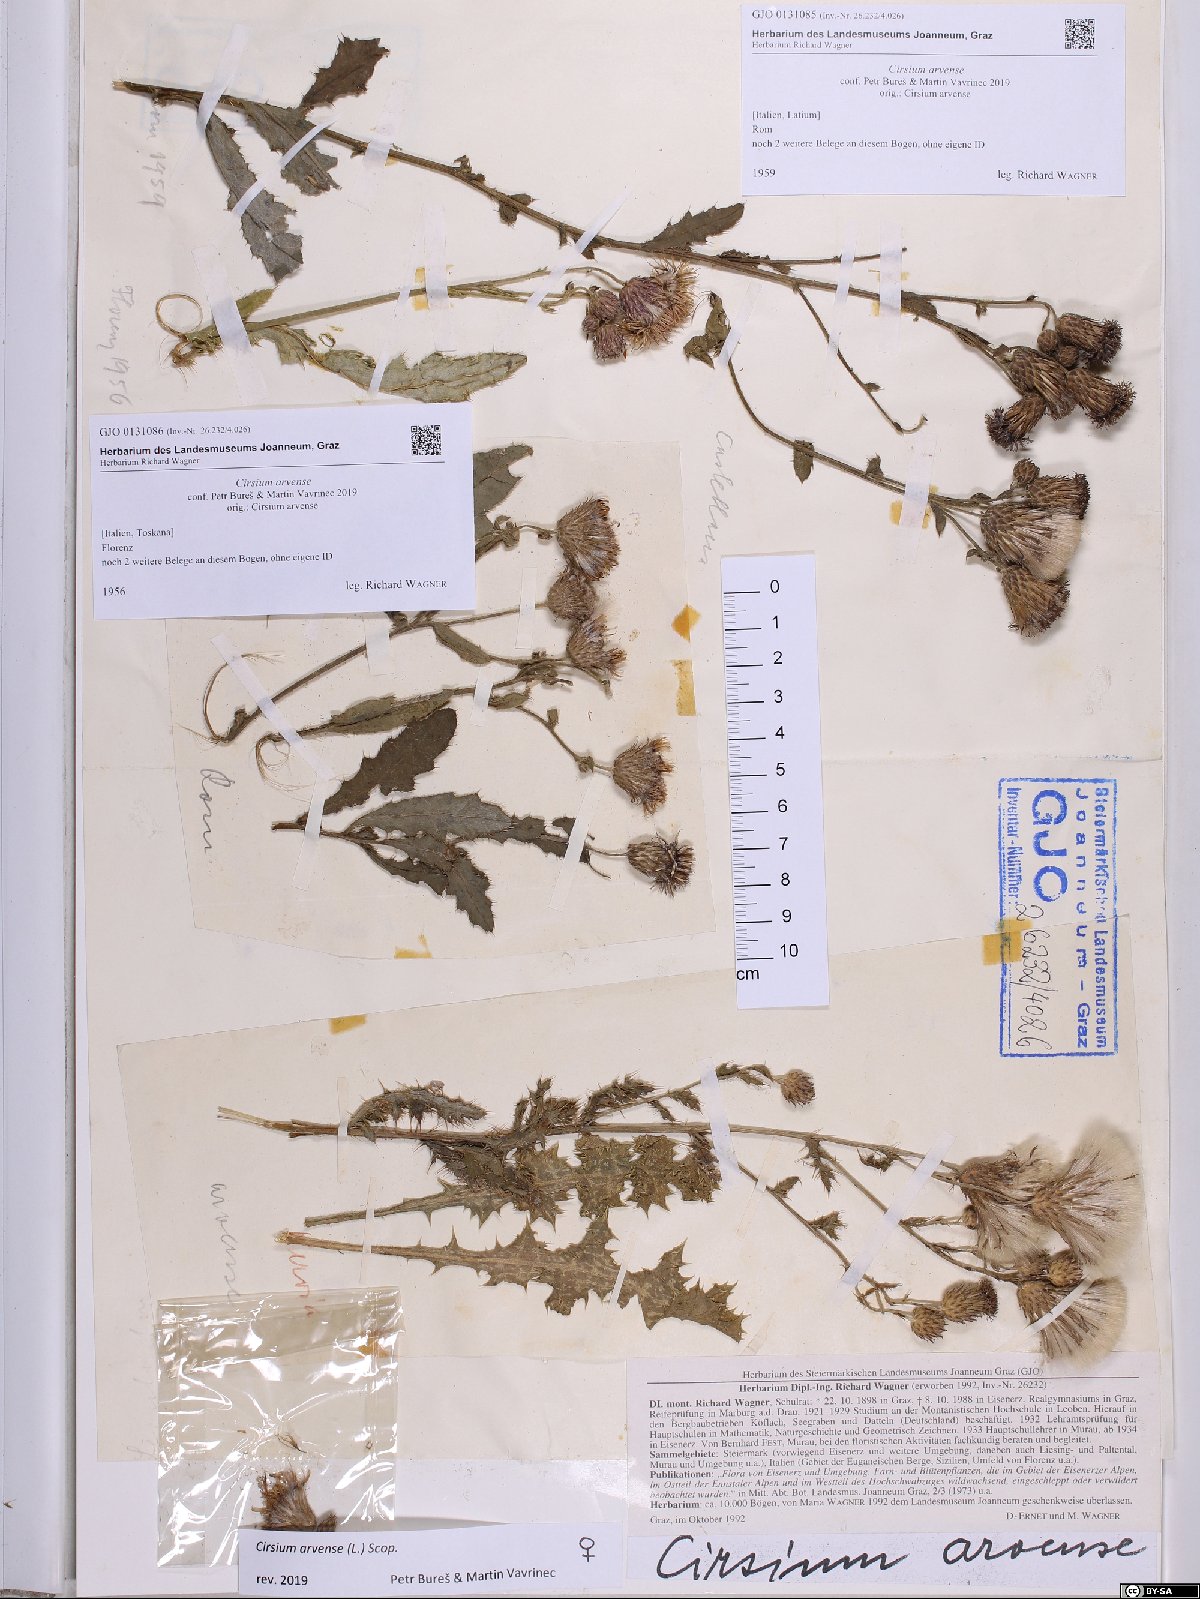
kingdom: Plantae
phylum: Tracheophyta
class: Magnoliopsida
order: Asterales
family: Asteraceae
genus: Cirsium
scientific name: Cirsium arvense
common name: Creeping thistle
